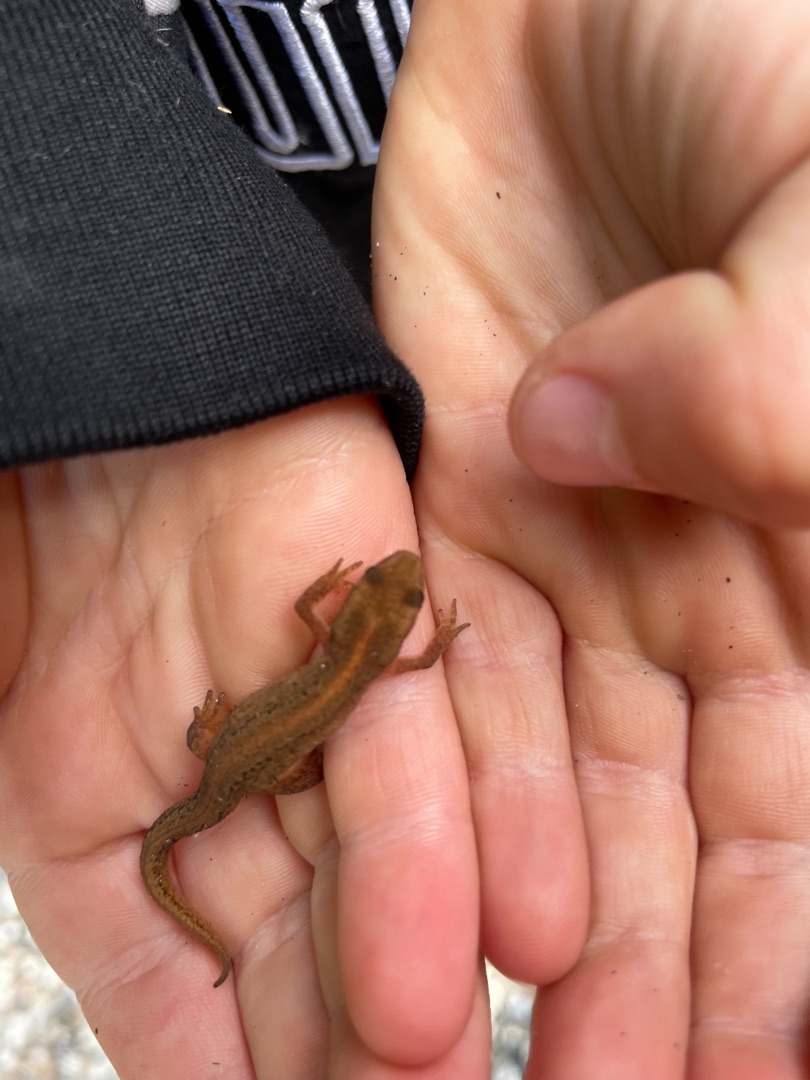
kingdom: Animalia
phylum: Chordata
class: Amphibia
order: Caudata
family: Salamandridae
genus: Lissotriton
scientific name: Lissotriton vulgaris
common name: Lille vandsalamander
